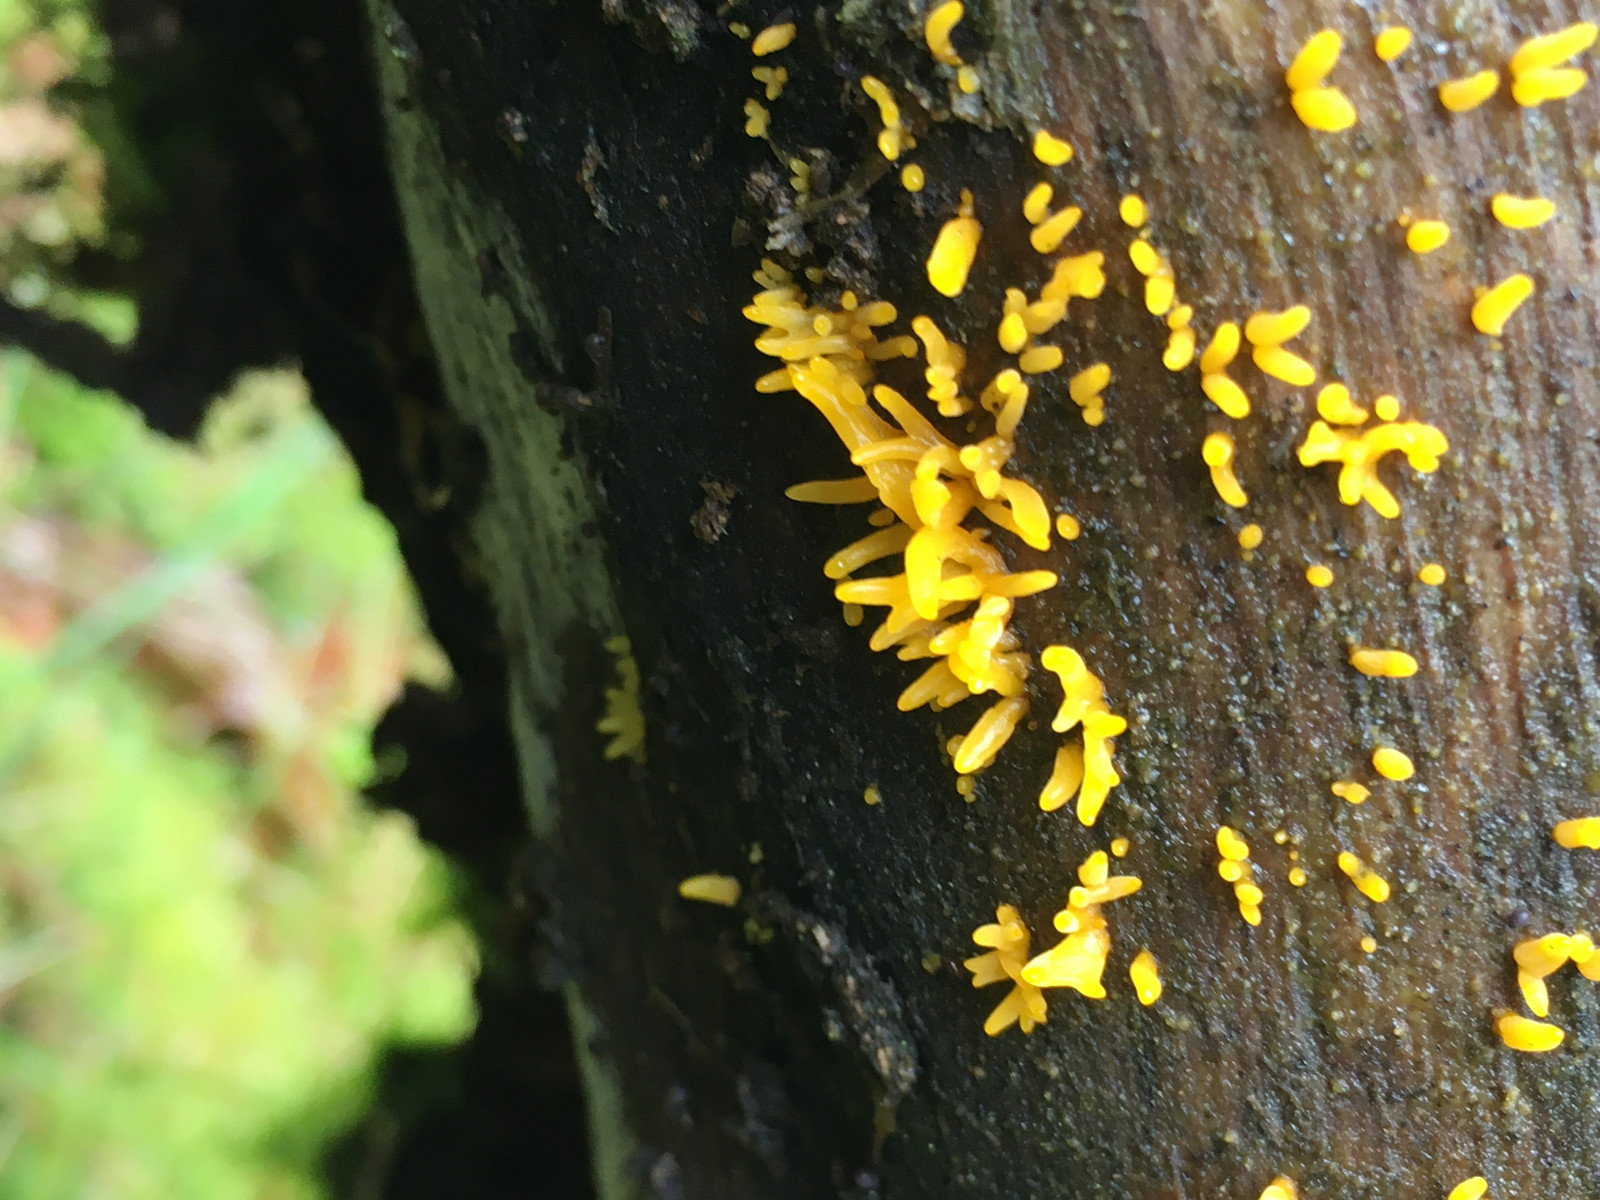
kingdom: Fungi
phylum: Basidiomycota
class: Dacrymycetes
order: Dacrymycetales
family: Dacrymycetaceae
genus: Calocera
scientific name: Calocera cornea
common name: liden guldgaffel
